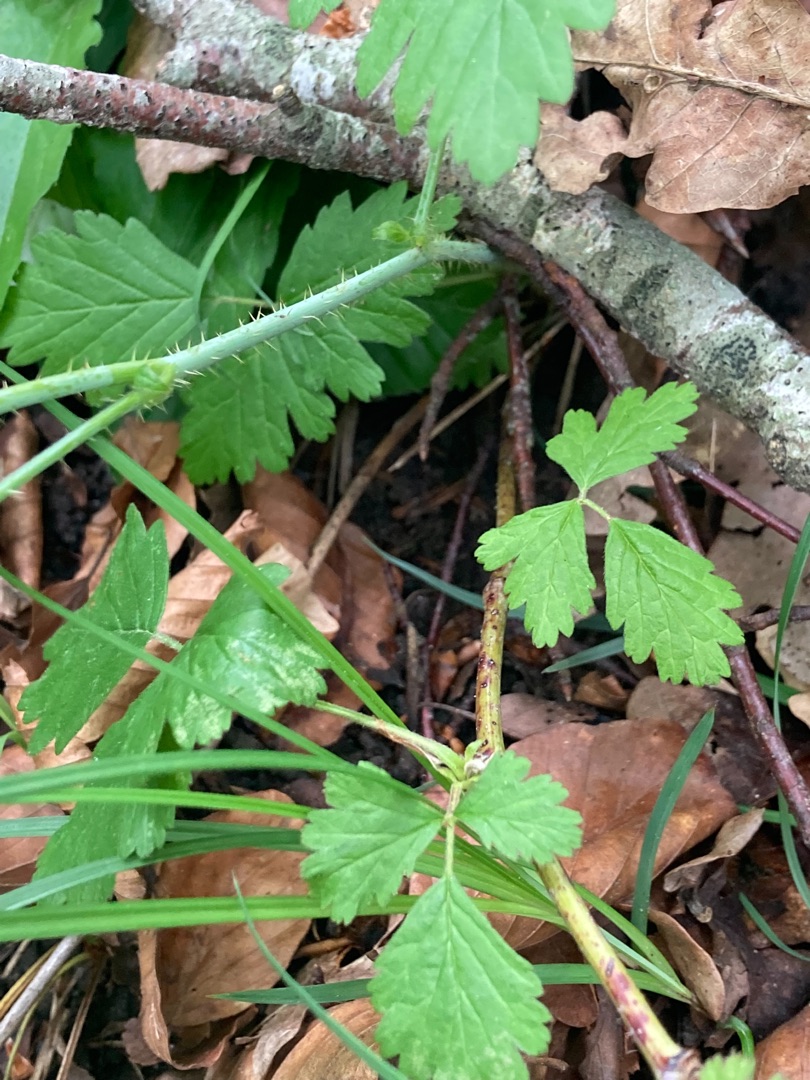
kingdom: Plantae
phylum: Tracheophyta
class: Magnoliopsida
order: Rosales
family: Rosaceae
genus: Rubus
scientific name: Rubus caesius
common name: Korbær
